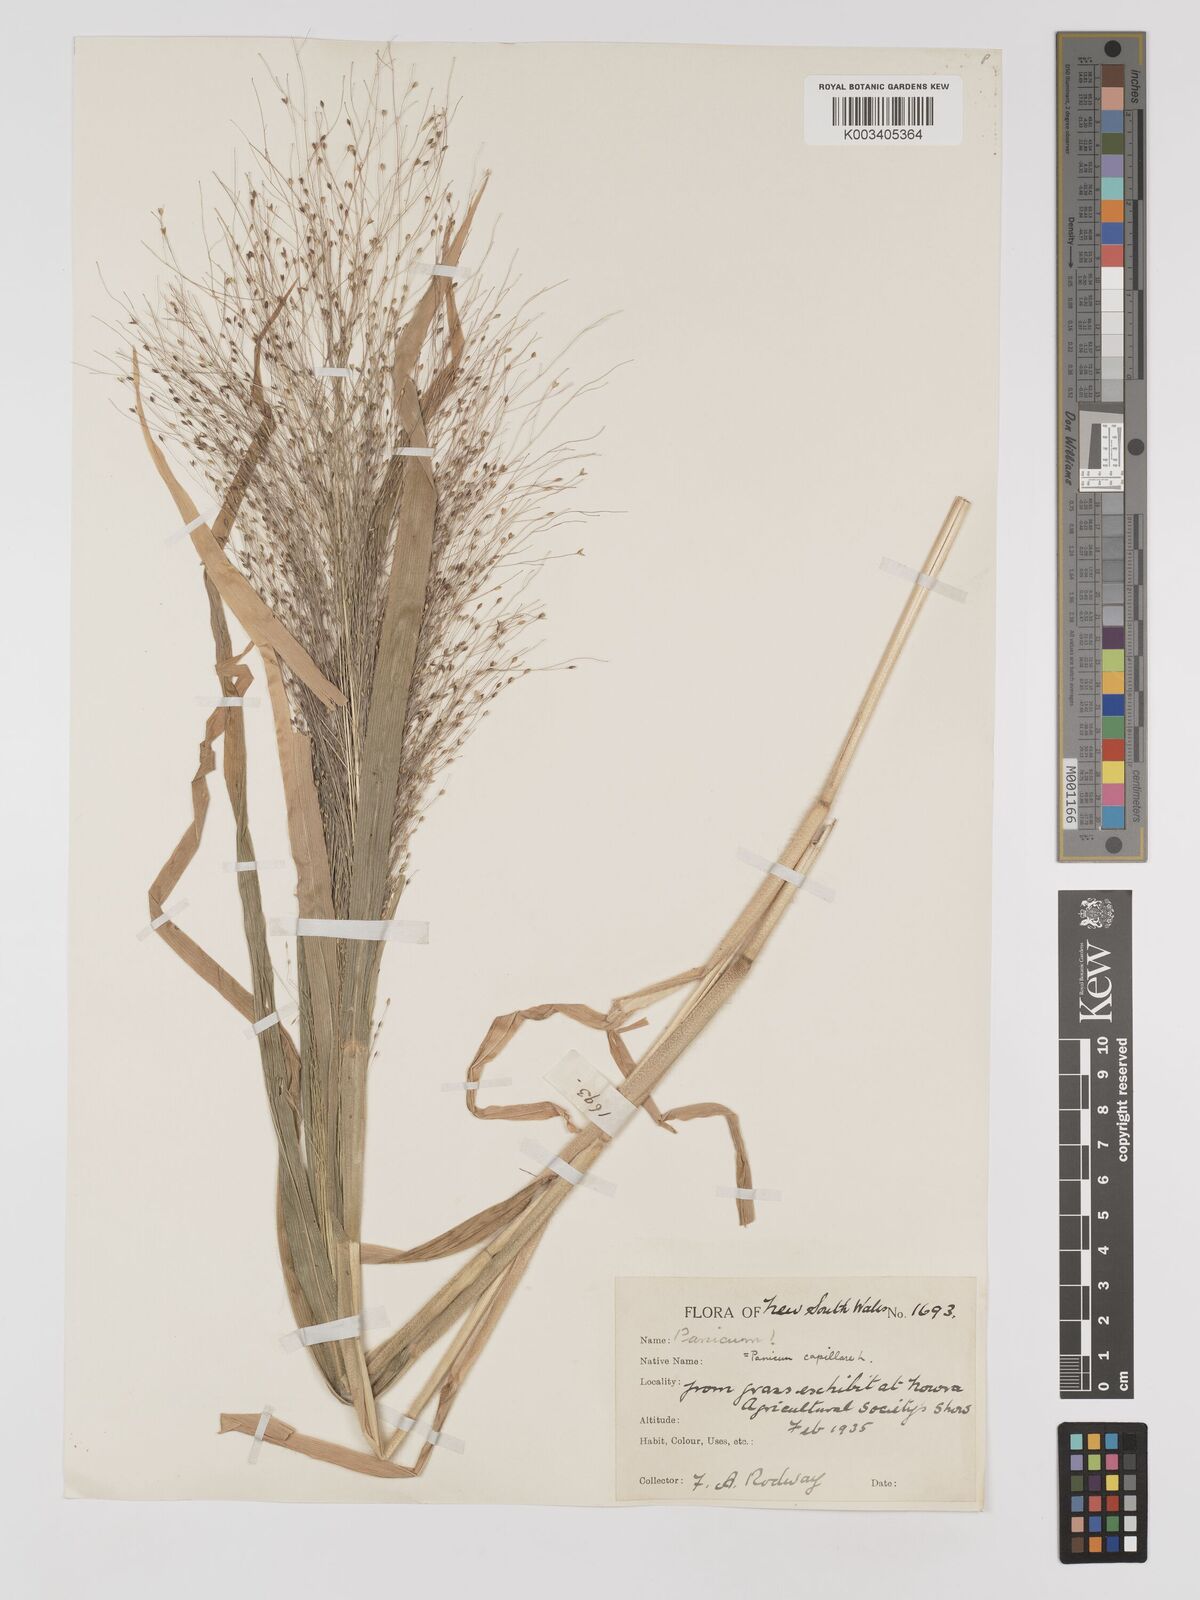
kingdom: Plantae
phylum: Tracheophyta
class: Liliopsida
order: Poales
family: Poaceae
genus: Panicum
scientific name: Panicum capillare
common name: Witch-grass
